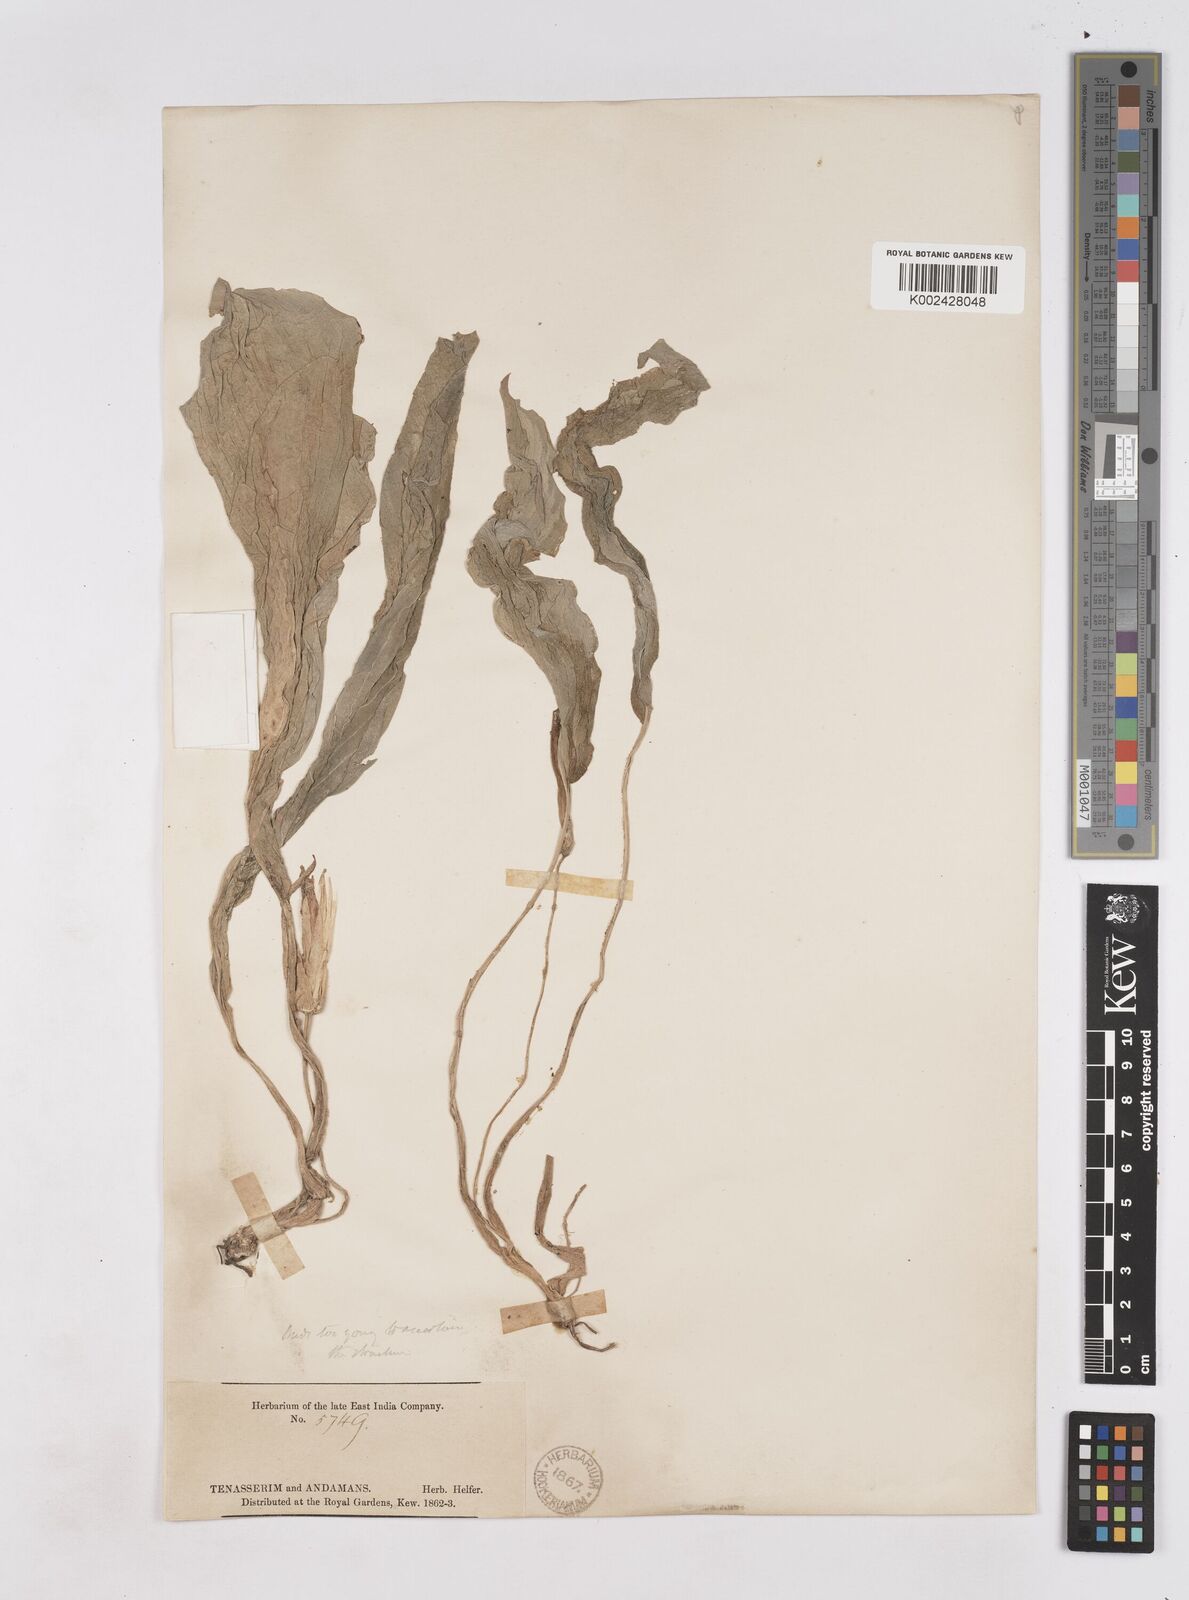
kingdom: Plantae
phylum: Tracheophyta
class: Liliopsida
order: Zingiberales
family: Zingiberaceae
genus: Kaempferia
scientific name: Kaempferia
